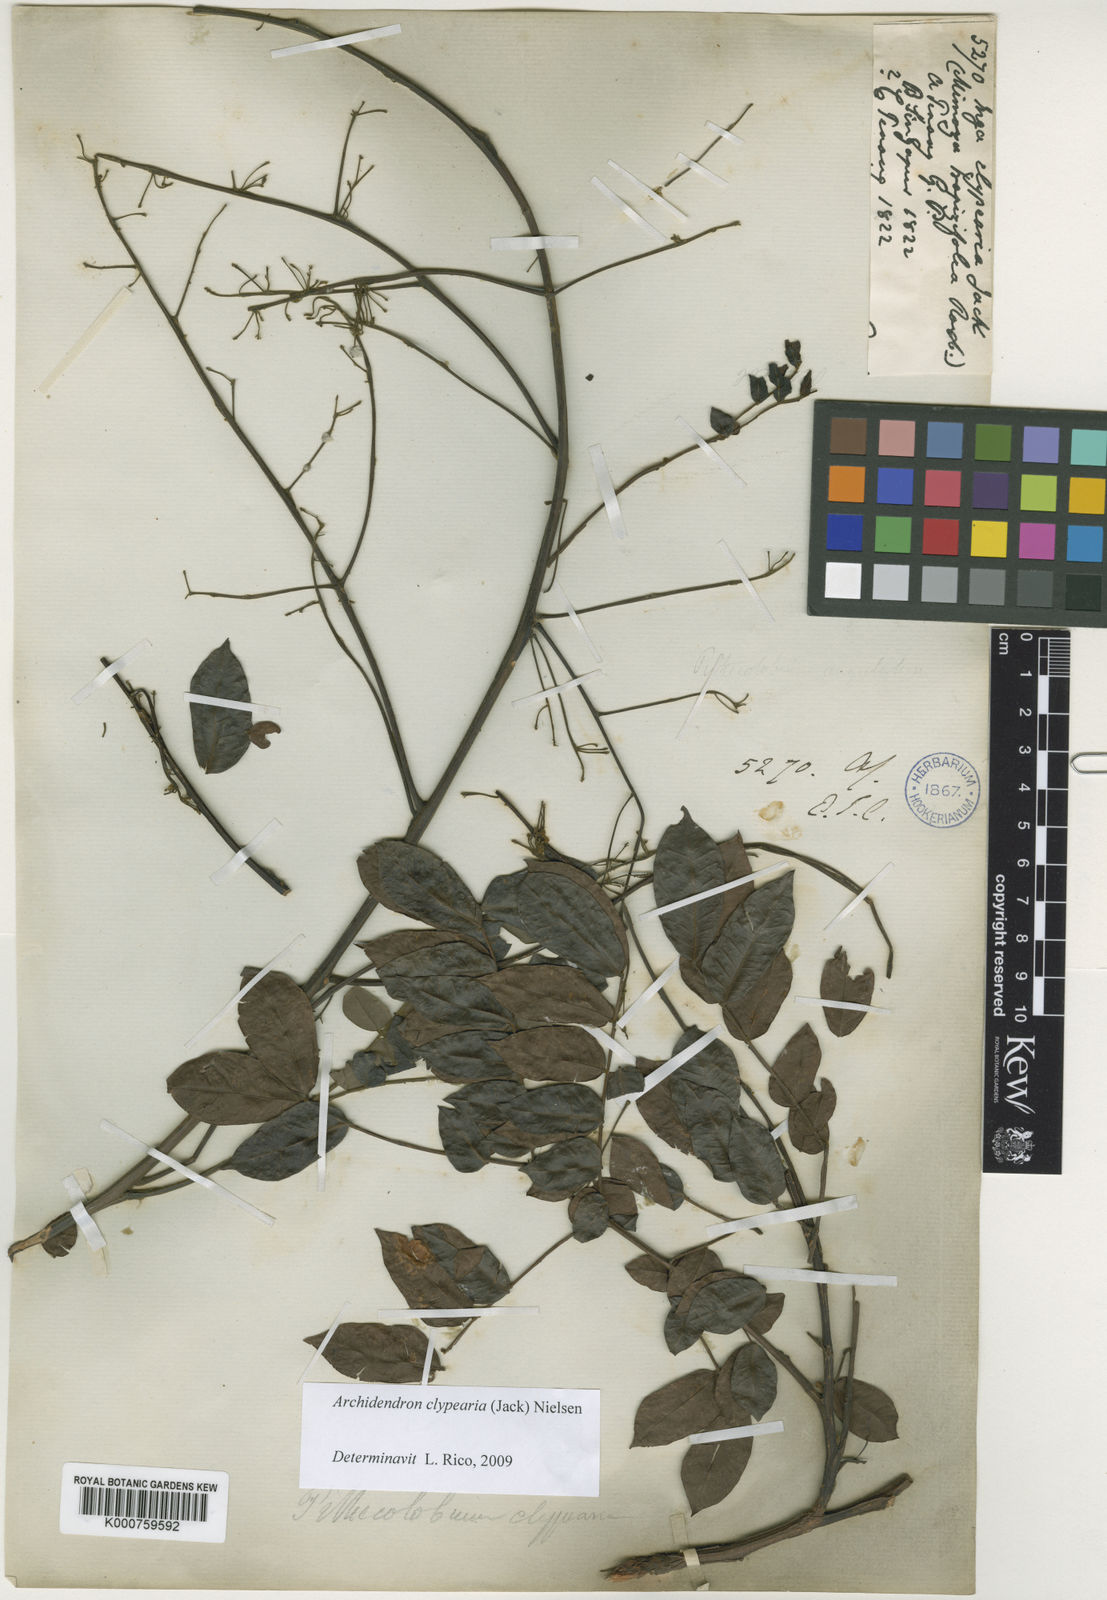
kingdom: Plantae
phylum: Tracheophyta
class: Magnoliopsida
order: Fabales
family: Fabaceae
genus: Archidendron
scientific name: Archidendron clypearia
